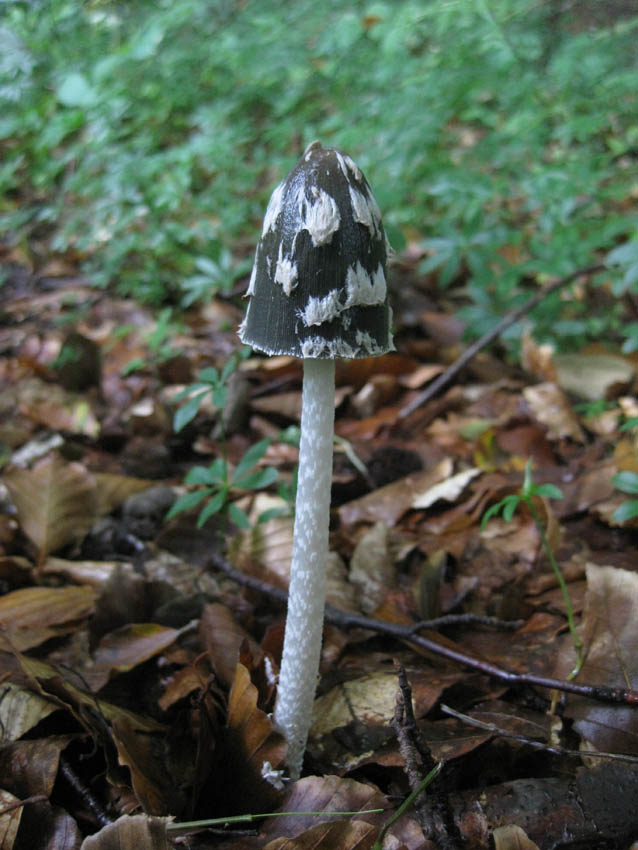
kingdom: Fungi
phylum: Basidiomycota
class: Agaricomycetes
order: Agaricales
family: Psathyrellaceae
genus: Coprinopsis
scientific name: Coprinopsis picacea
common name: skade-blækhat
